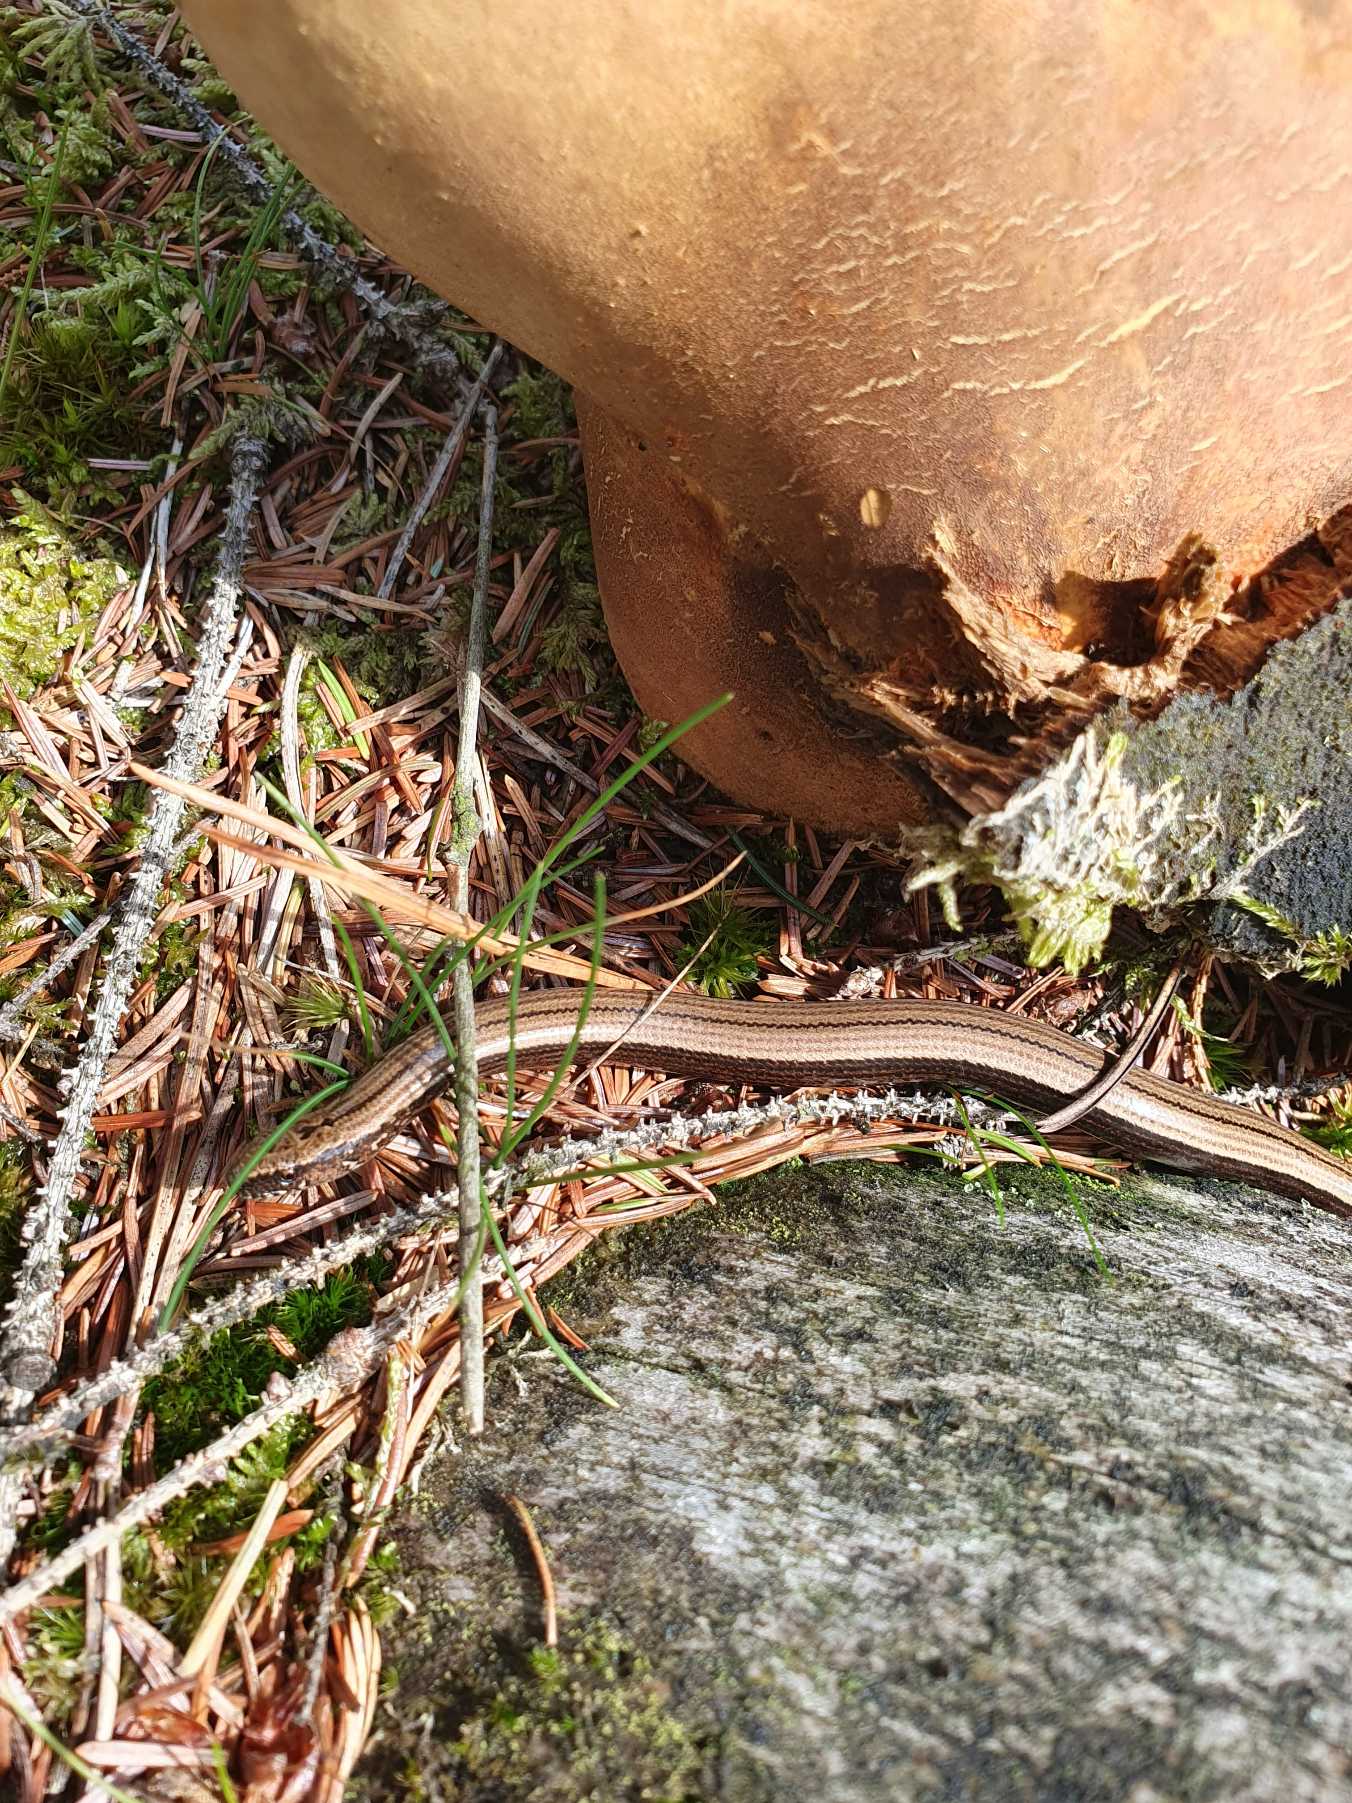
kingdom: Animalia
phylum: Chordata
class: Squamata
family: Anguidae
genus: Anguis
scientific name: Anguis fragilis
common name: Stålorm
